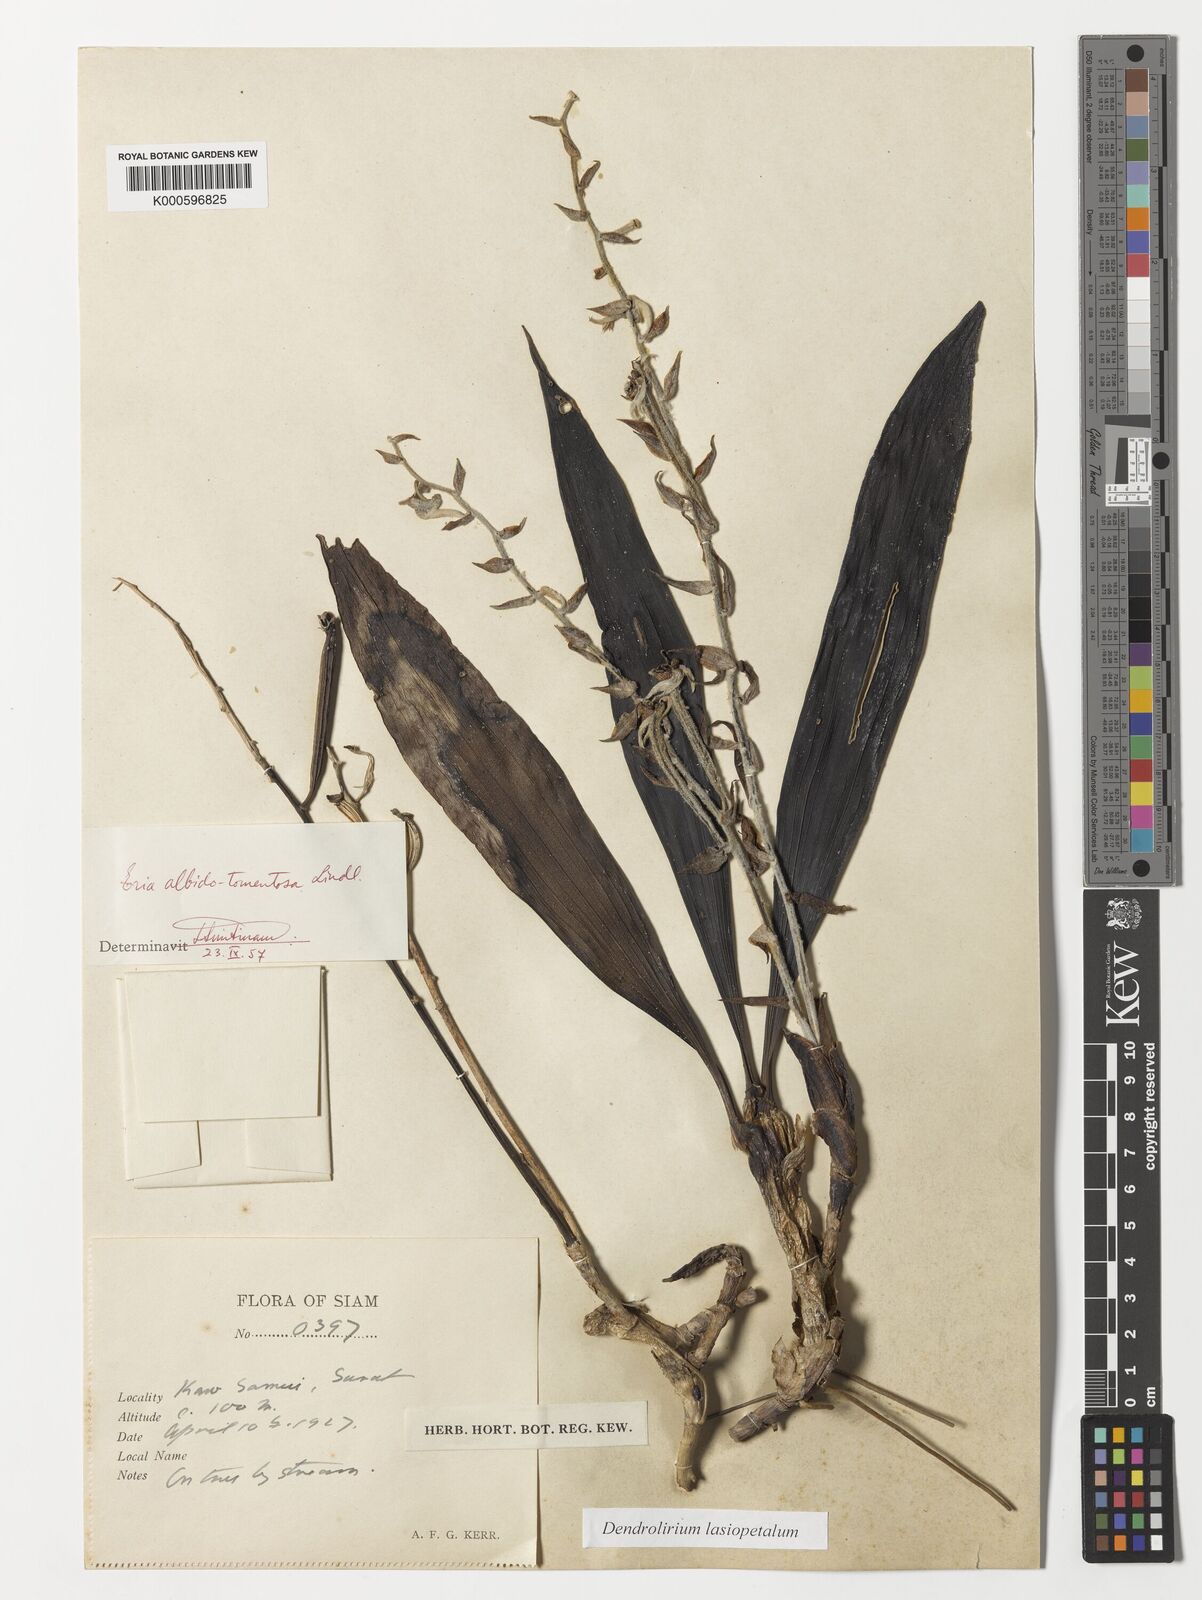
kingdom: Plantae
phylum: Tracheophyta
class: Liliopsida
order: Asparagales
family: Orchidaceae
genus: Dendrolirium
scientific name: Dendrolirium lasiopetalum
